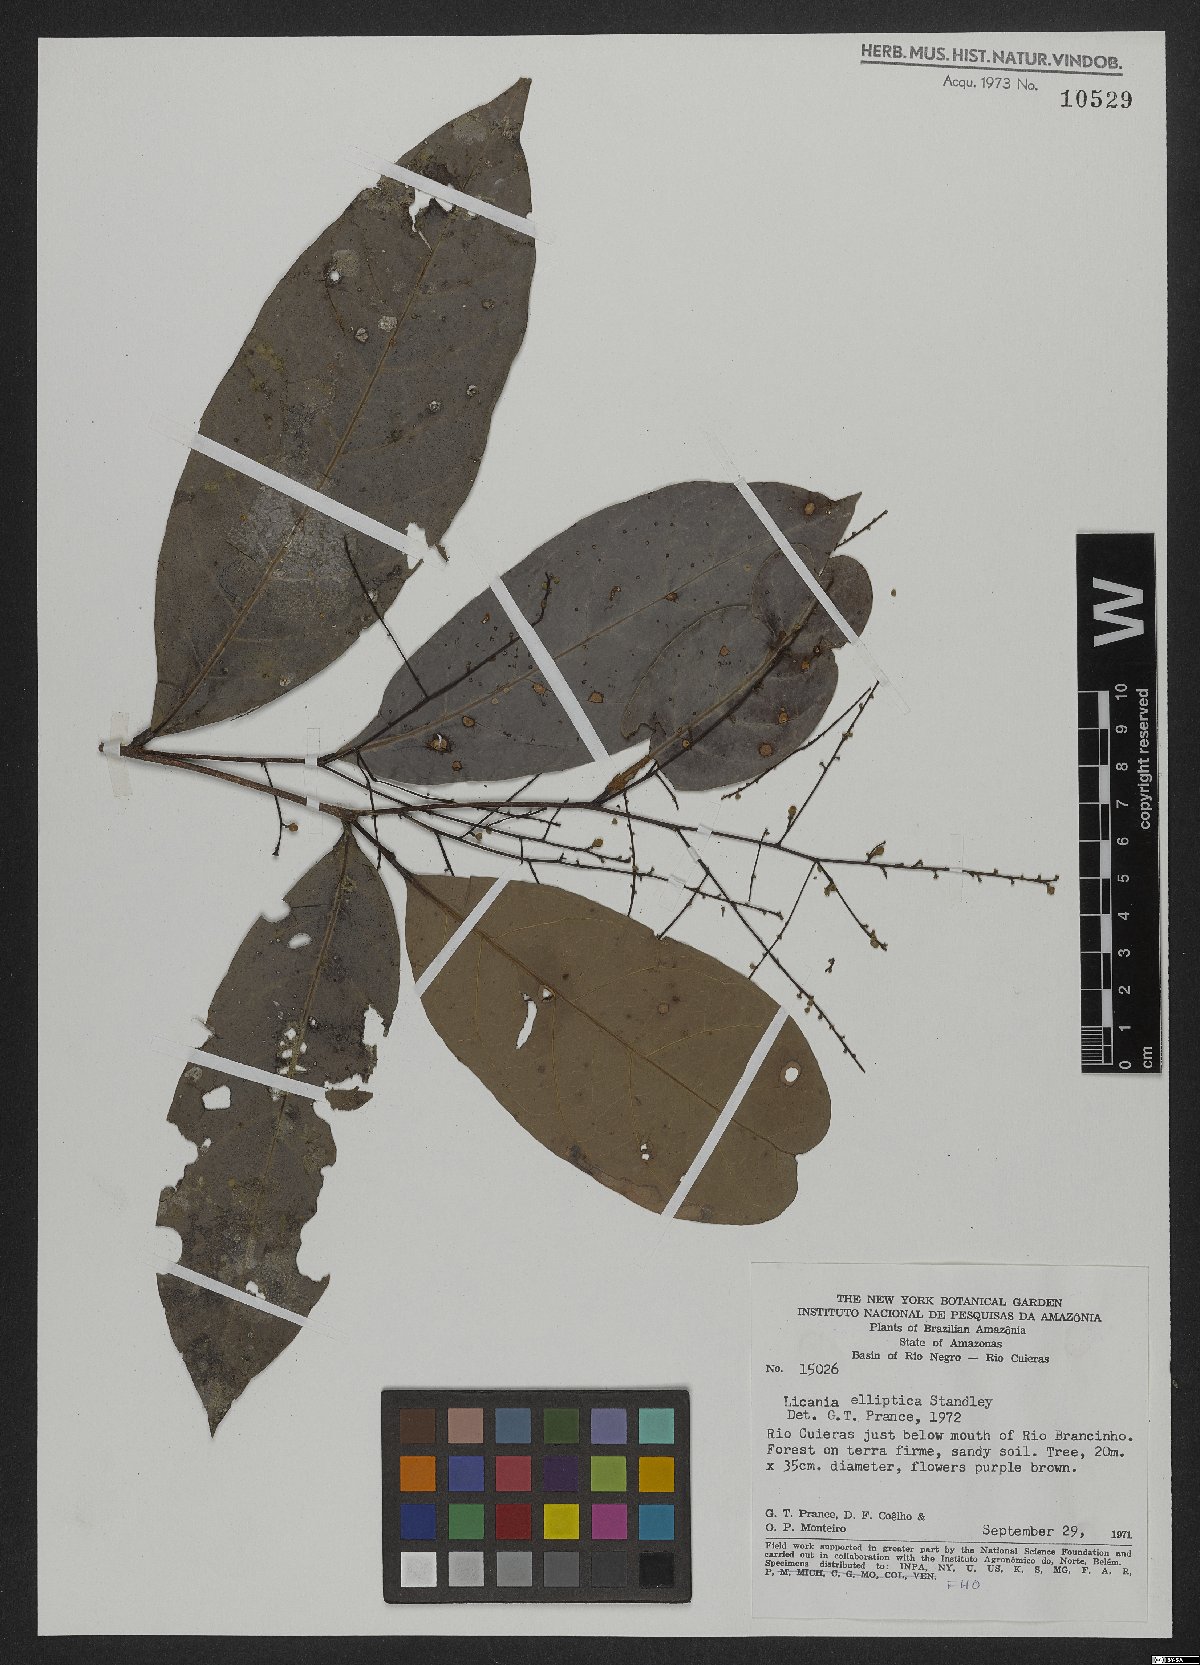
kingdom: Plantae
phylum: Tracheophyta
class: Magnoliopsida
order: Malpighiales
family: Chrysobalanaceae
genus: Licania
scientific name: Licania elliptica
